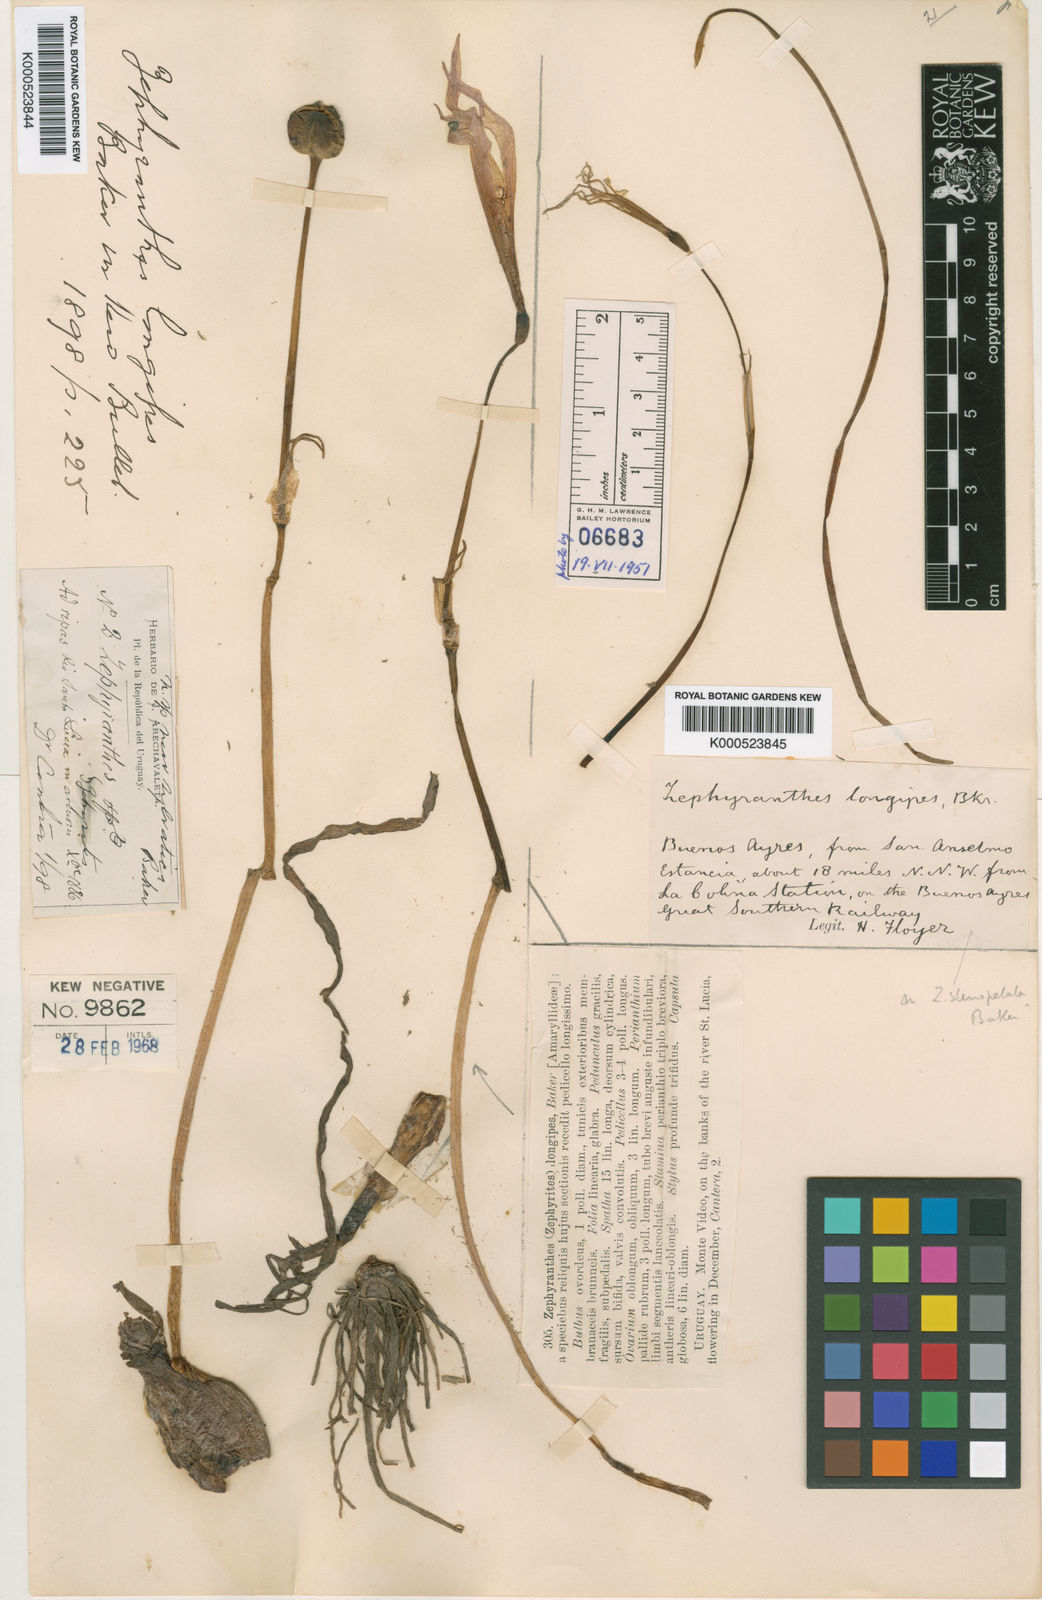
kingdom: Plantae
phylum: Tracheophyta
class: Liliopsida
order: Asparagales
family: Amaryllidaceae
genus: Zephyranthes
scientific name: Zephyranthes longipes
